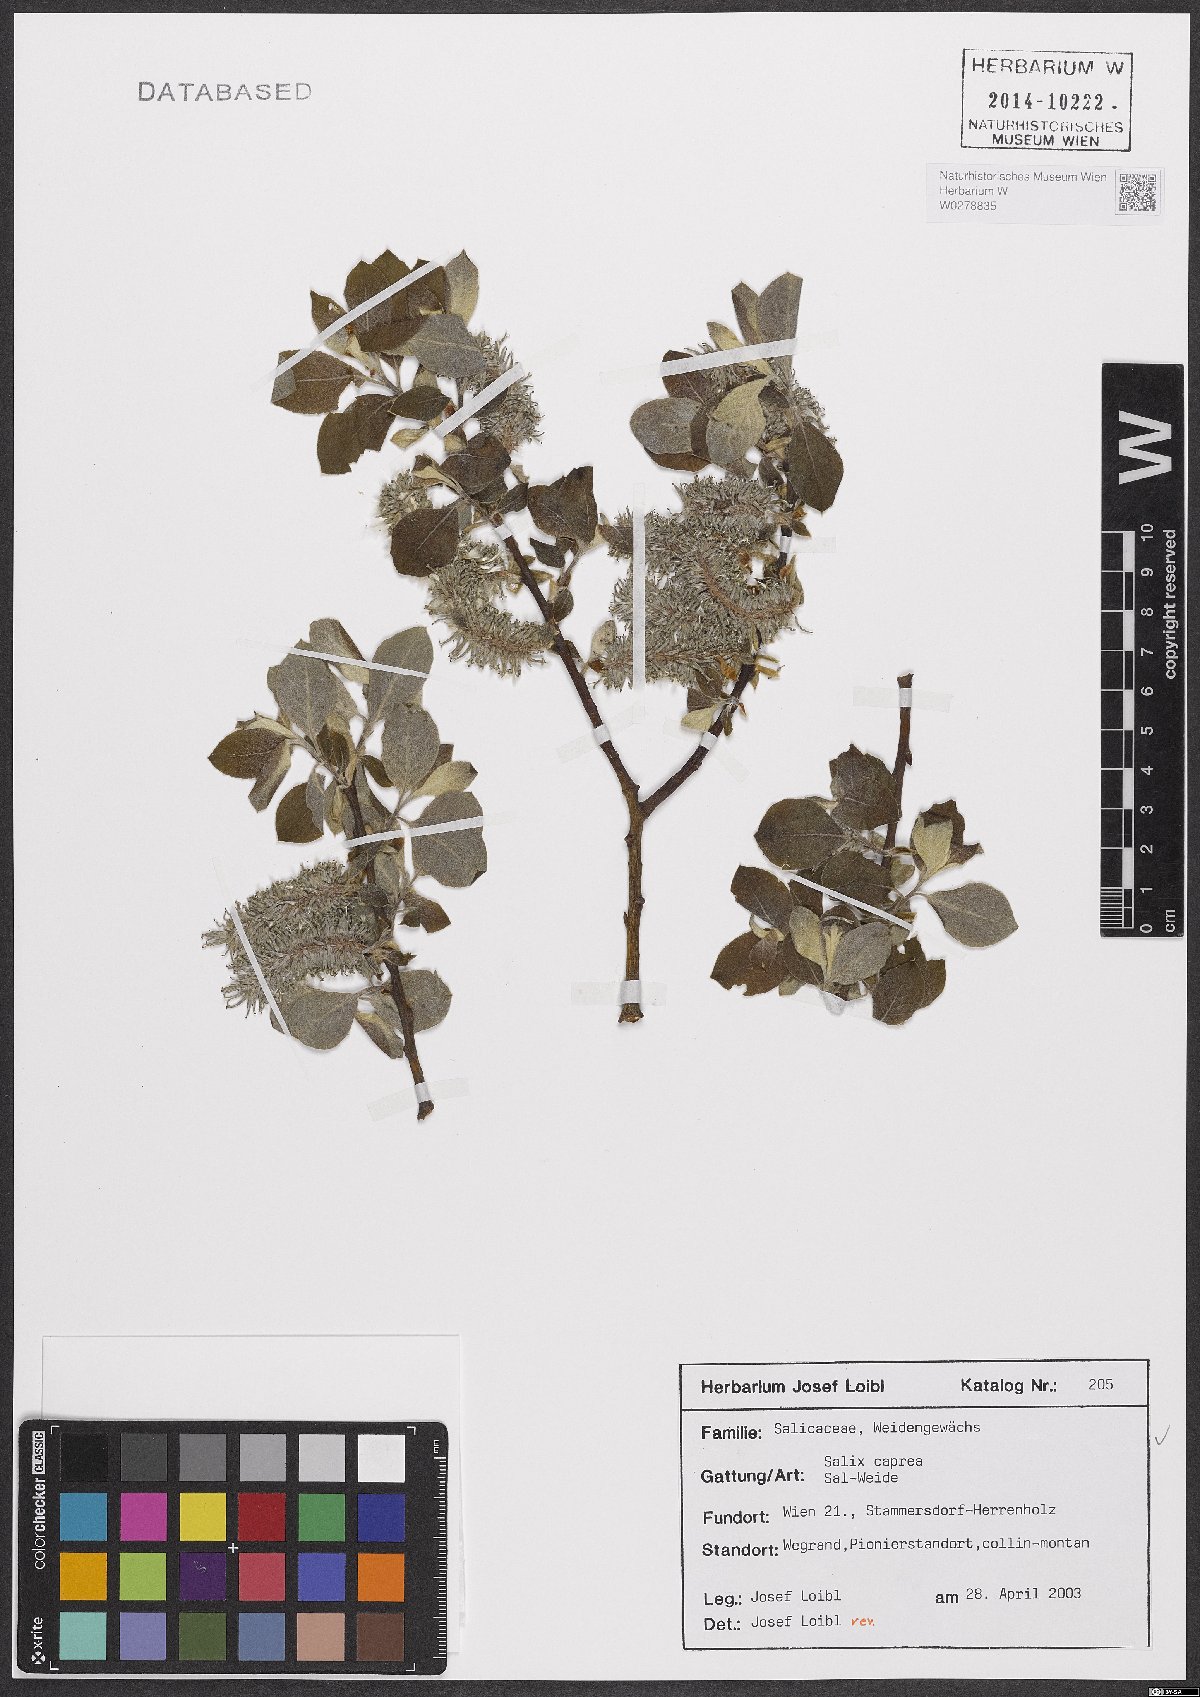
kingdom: Plantae
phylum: Tracheophyta
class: Magnoliopsida
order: Malpighiales
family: Salicaceae
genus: Salix
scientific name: Salix caprea
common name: Goat willow
